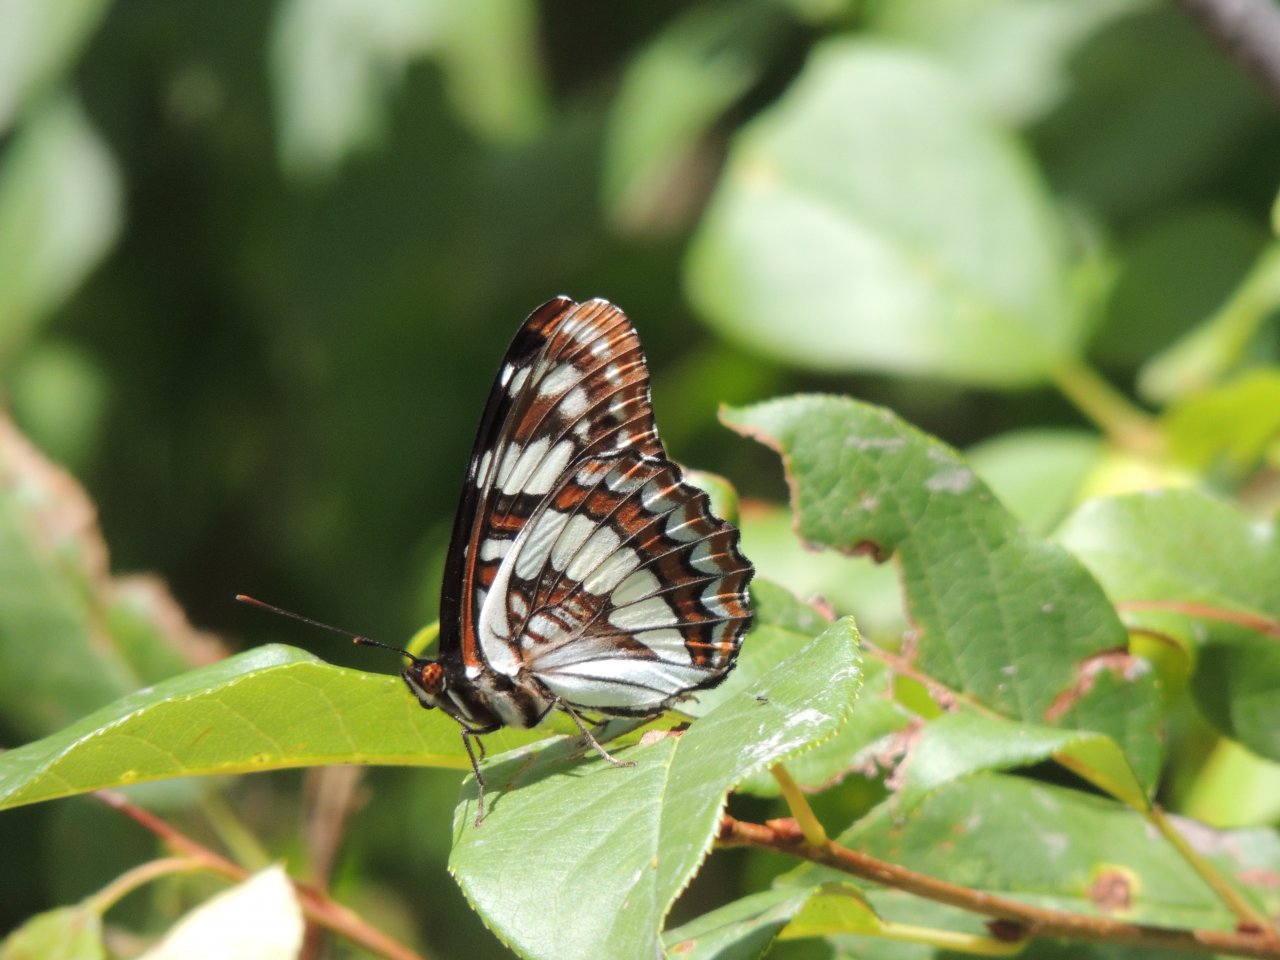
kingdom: Animalia
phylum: Arthropoda
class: Insecta
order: Lepidoptera
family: Nymphalidae
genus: Limenitis
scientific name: Limenitis lorquini
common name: Lorquin's Admiral
